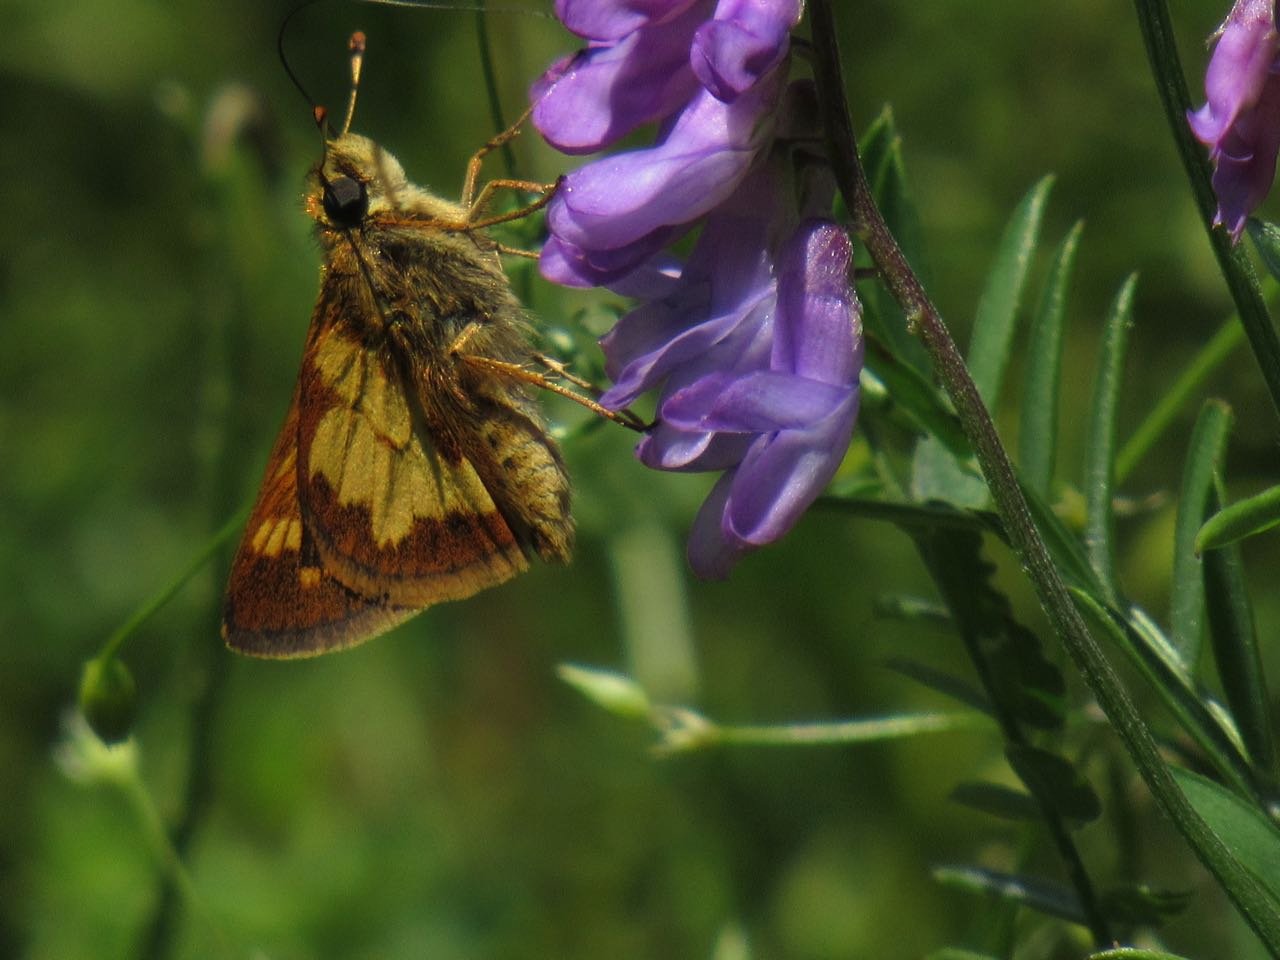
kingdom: Animalia
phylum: Arthropoda
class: Insecta
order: Lepidoptera
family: Hesperiidae
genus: Polites
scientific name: Polites coras
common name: Peck's Skipper
